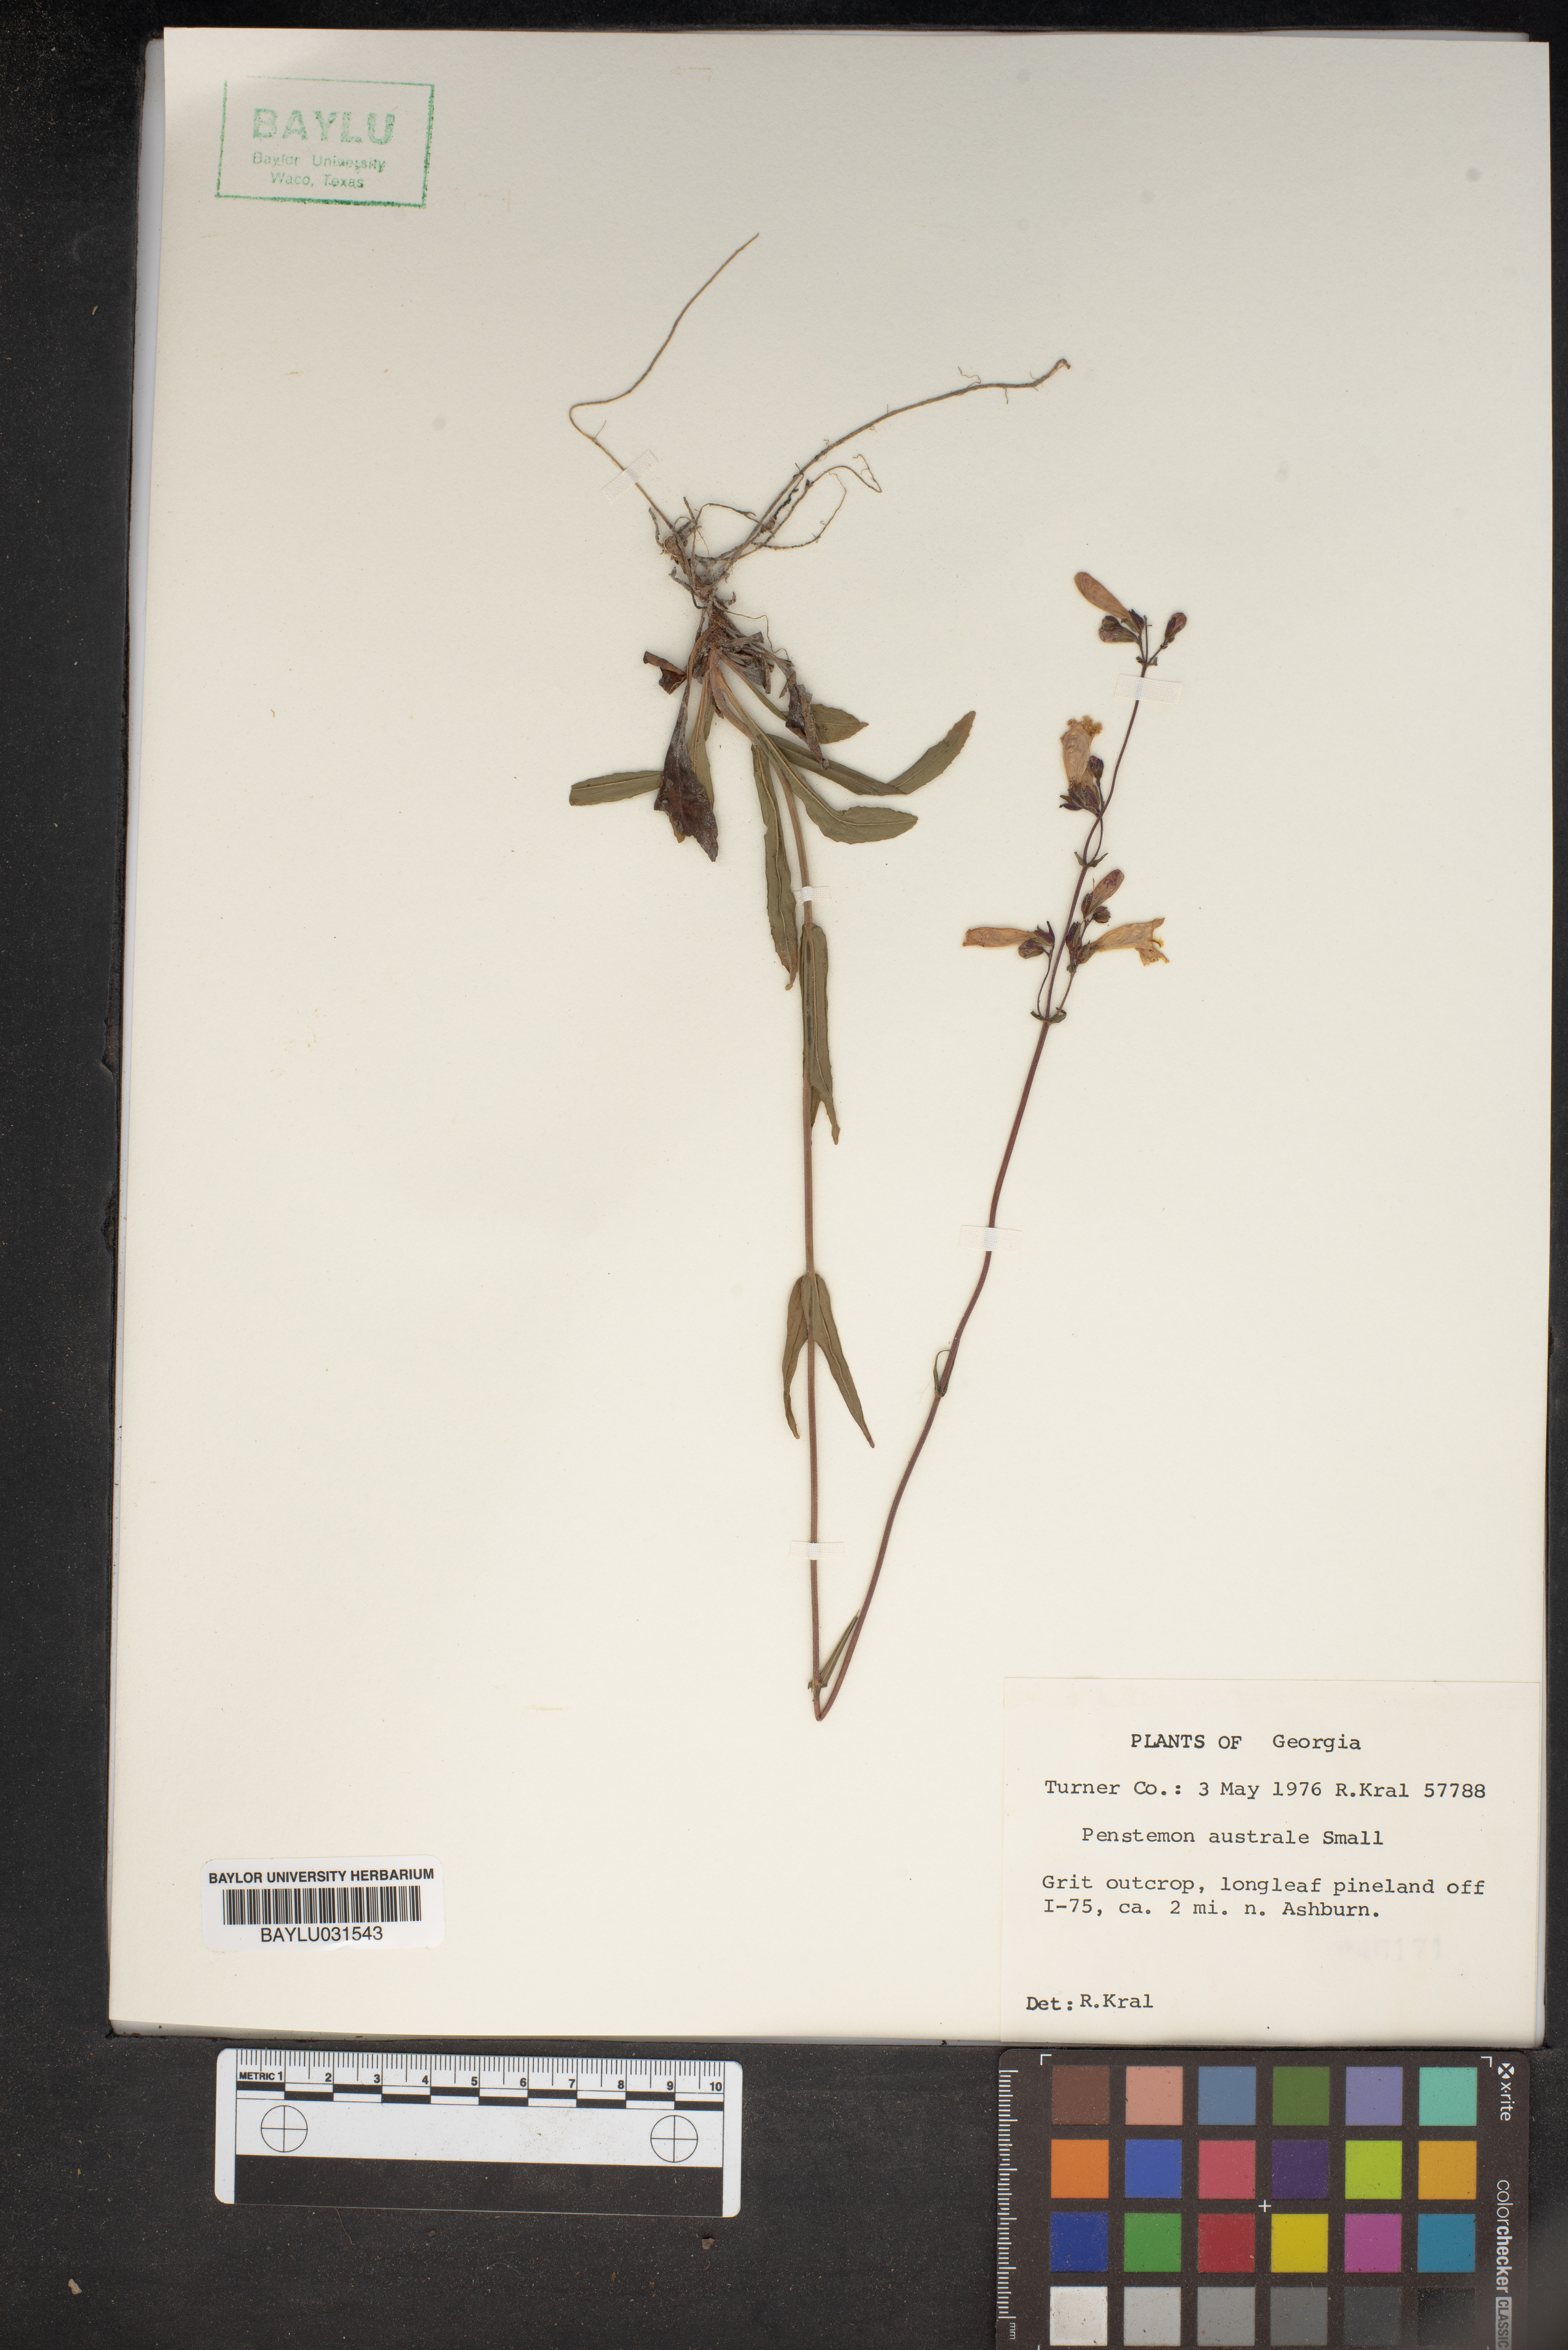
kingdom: Plantae
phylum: Tracheophyta
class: Magnoliopsida
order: Lamiales
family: Plantaginaceae
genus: Penstemon
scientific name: Penstemon australis
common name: Southeastern beardtongue
